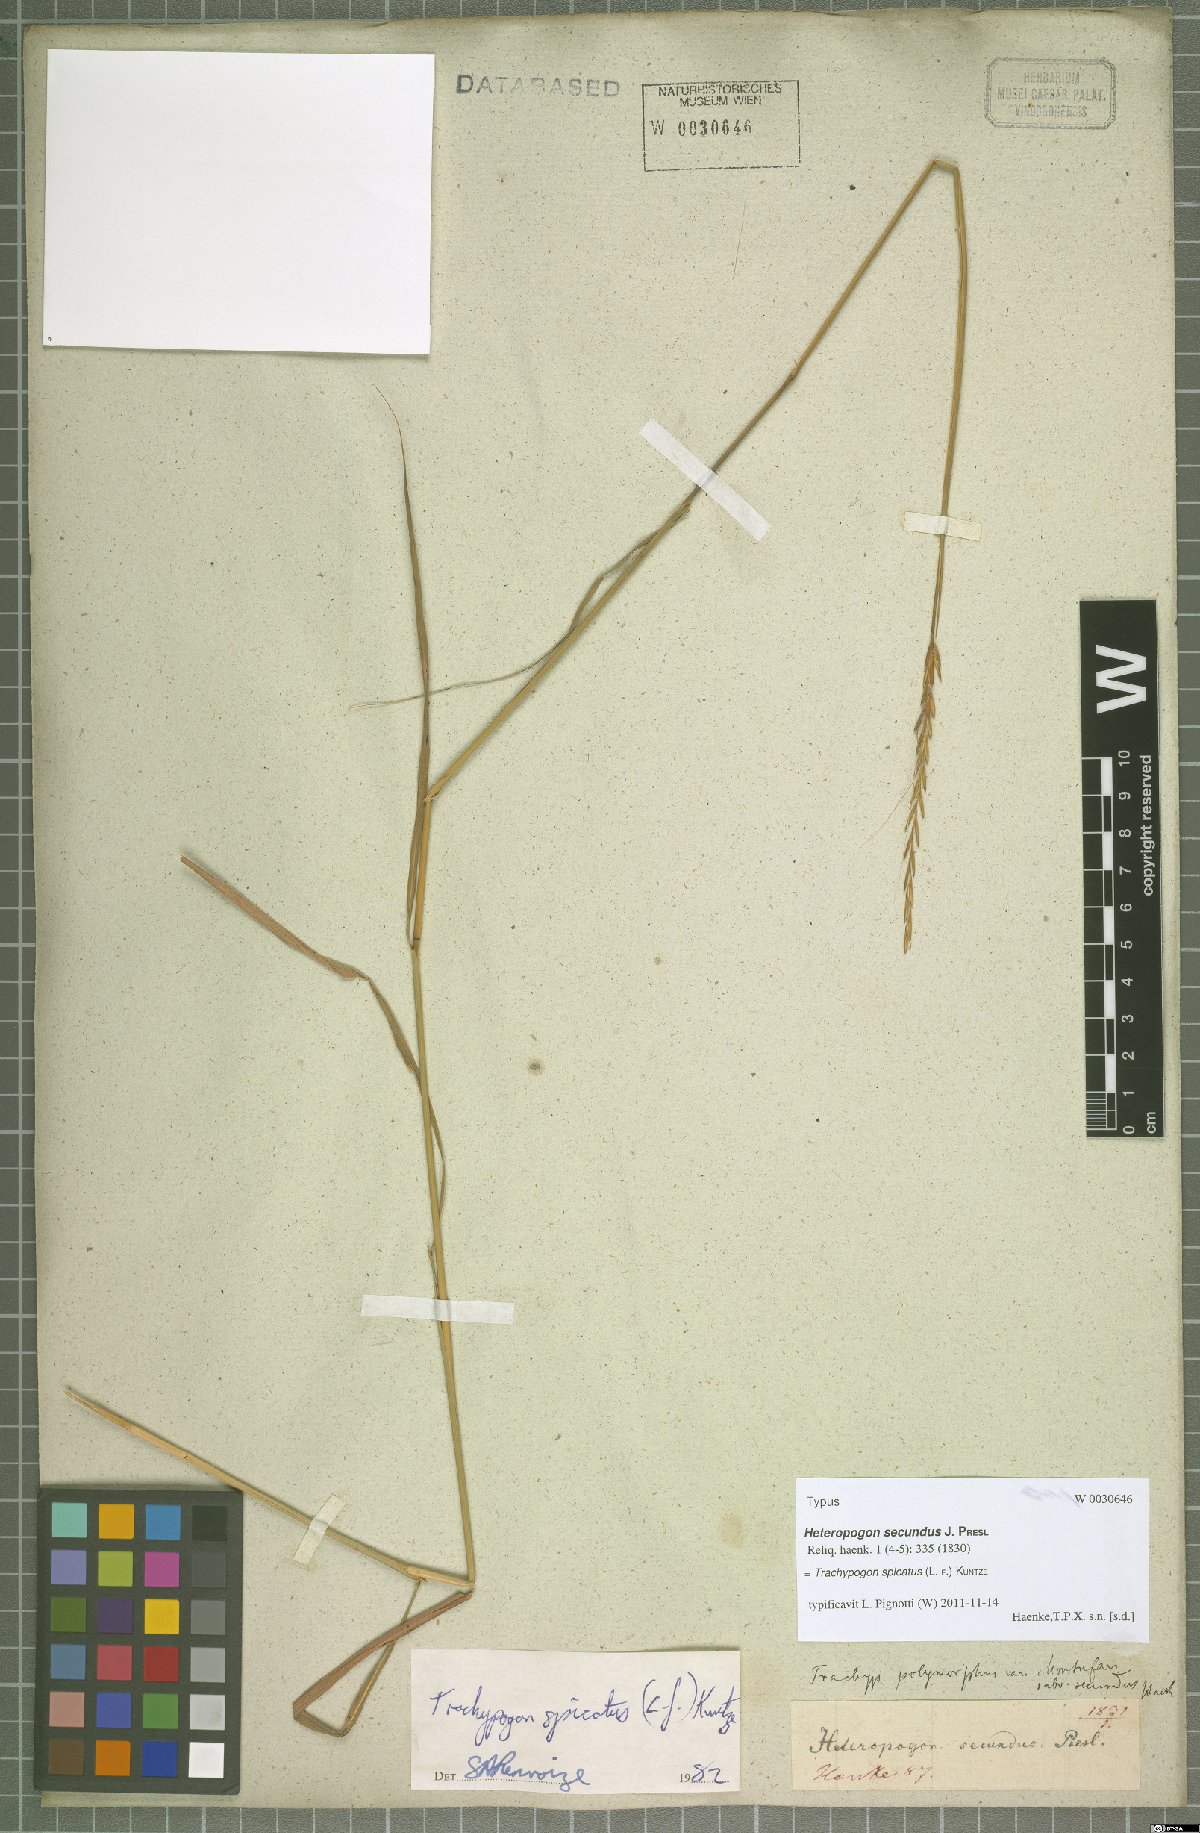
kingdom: Plantae
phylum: Tracheophyta
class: Liliopsida
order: Poales
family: Poaceae
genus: Trachypogon
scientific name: Trachypogon spicatus
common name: Crinkle-awn
